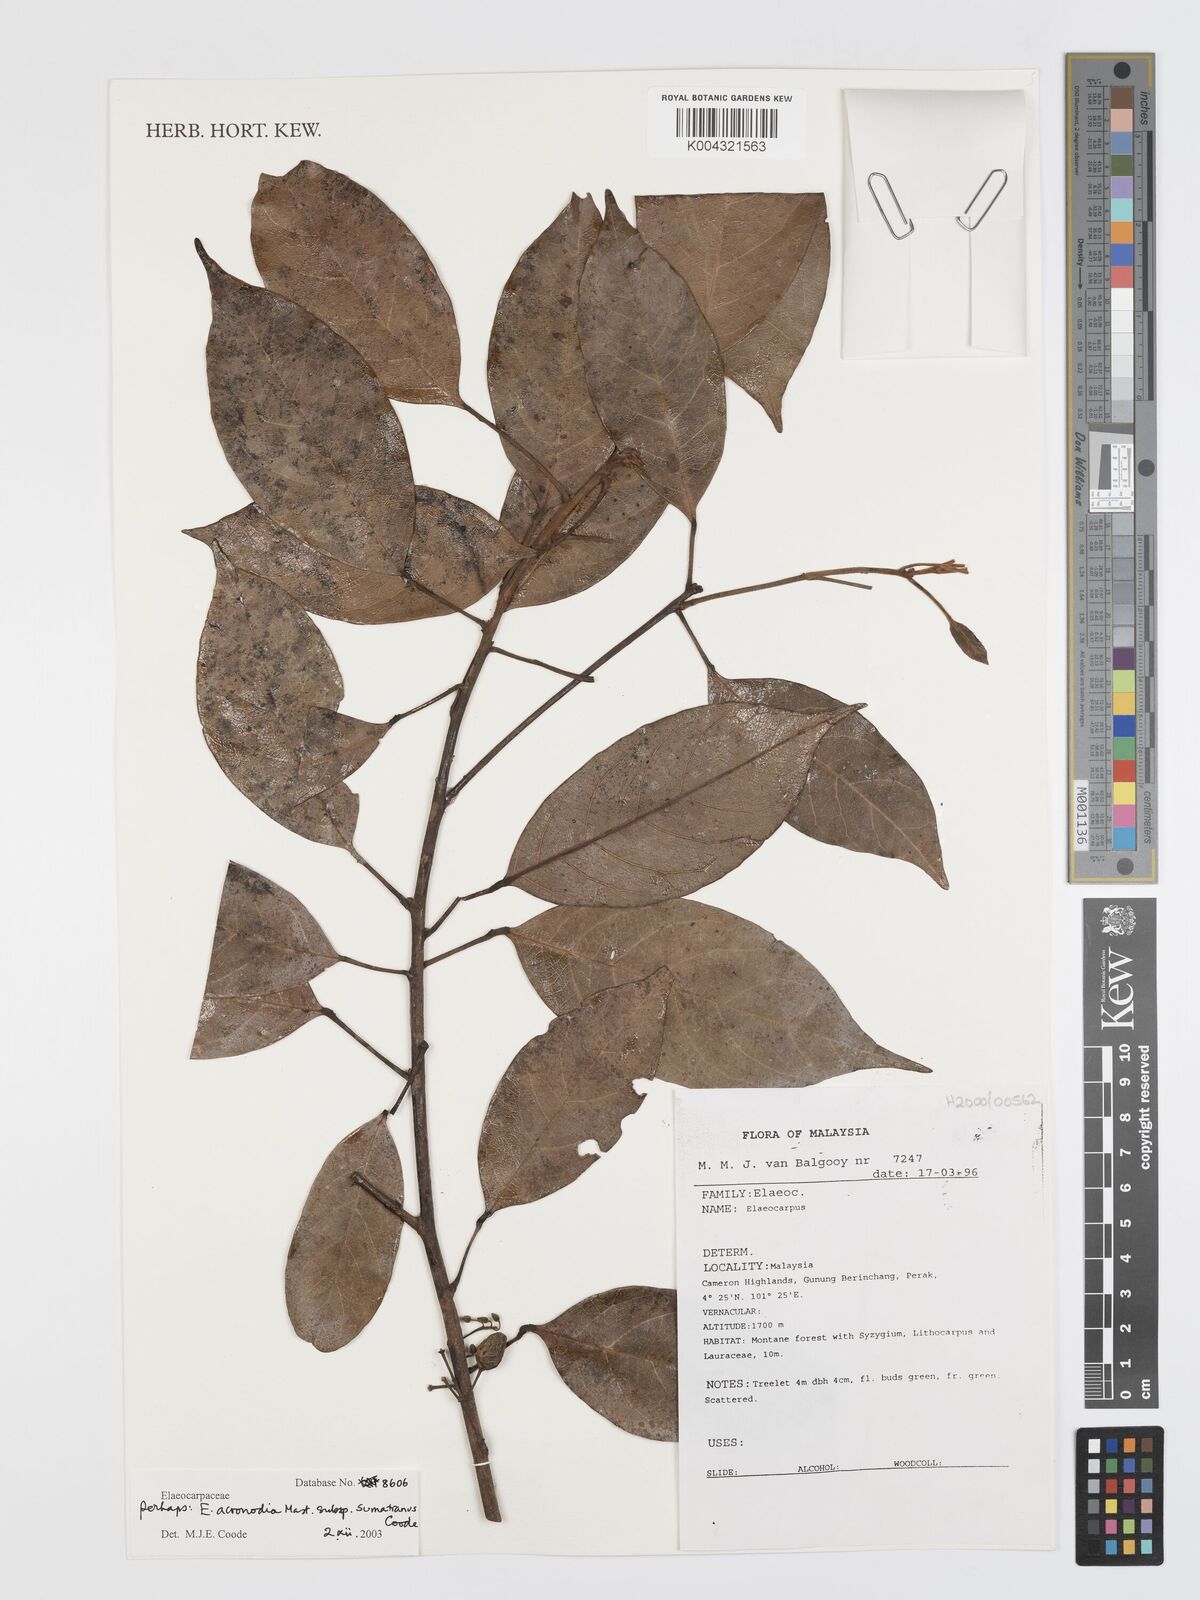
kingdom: Plantae
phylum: Tracheophyta
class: Magnoliopsida
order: Oxalidales
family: Elaeocarpaceae
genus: Elaeocarpus
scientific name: Elaeocarpus acronodia
